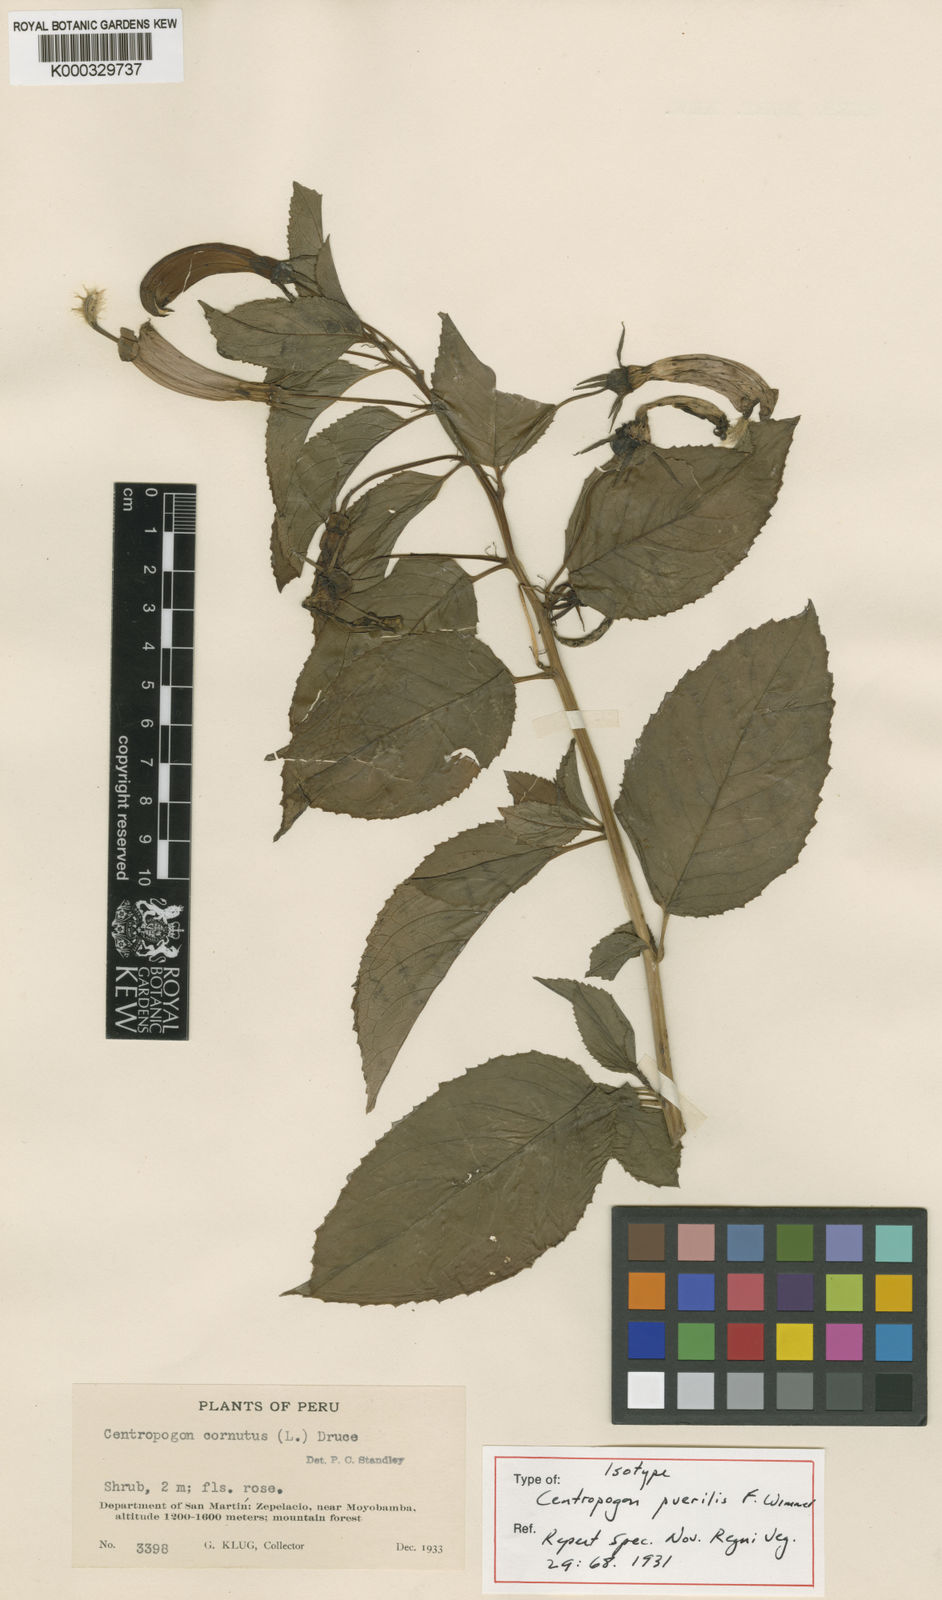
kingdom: Plantae
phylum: Tracheophyta
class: Magnoliopsida
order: Asterales
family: Campanulaceae
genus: Centropogon
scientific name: Centropogon cornutus
